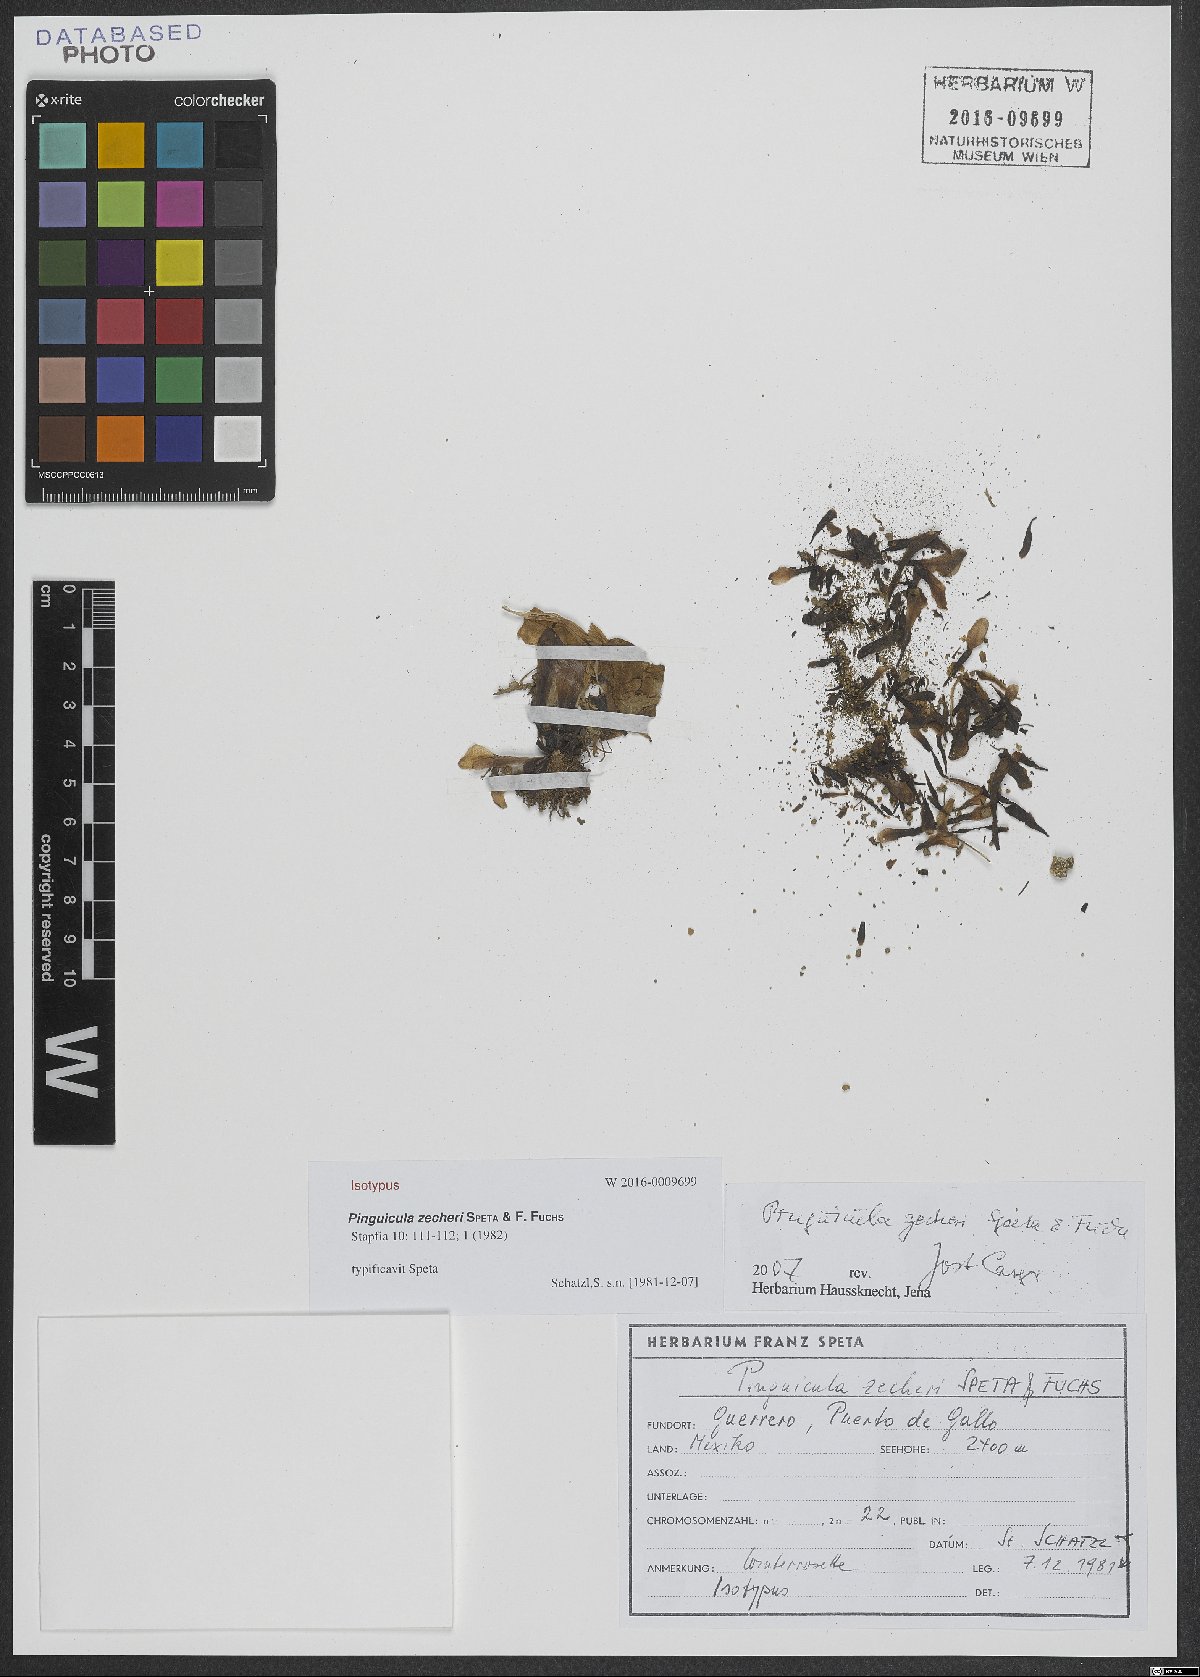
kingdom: Plantae
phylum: Tracheophyta
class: Magnoliopsida
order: Lamiales
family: Lentibulariaceae
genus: Pinguicula
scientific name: Pinguicula zecheri
